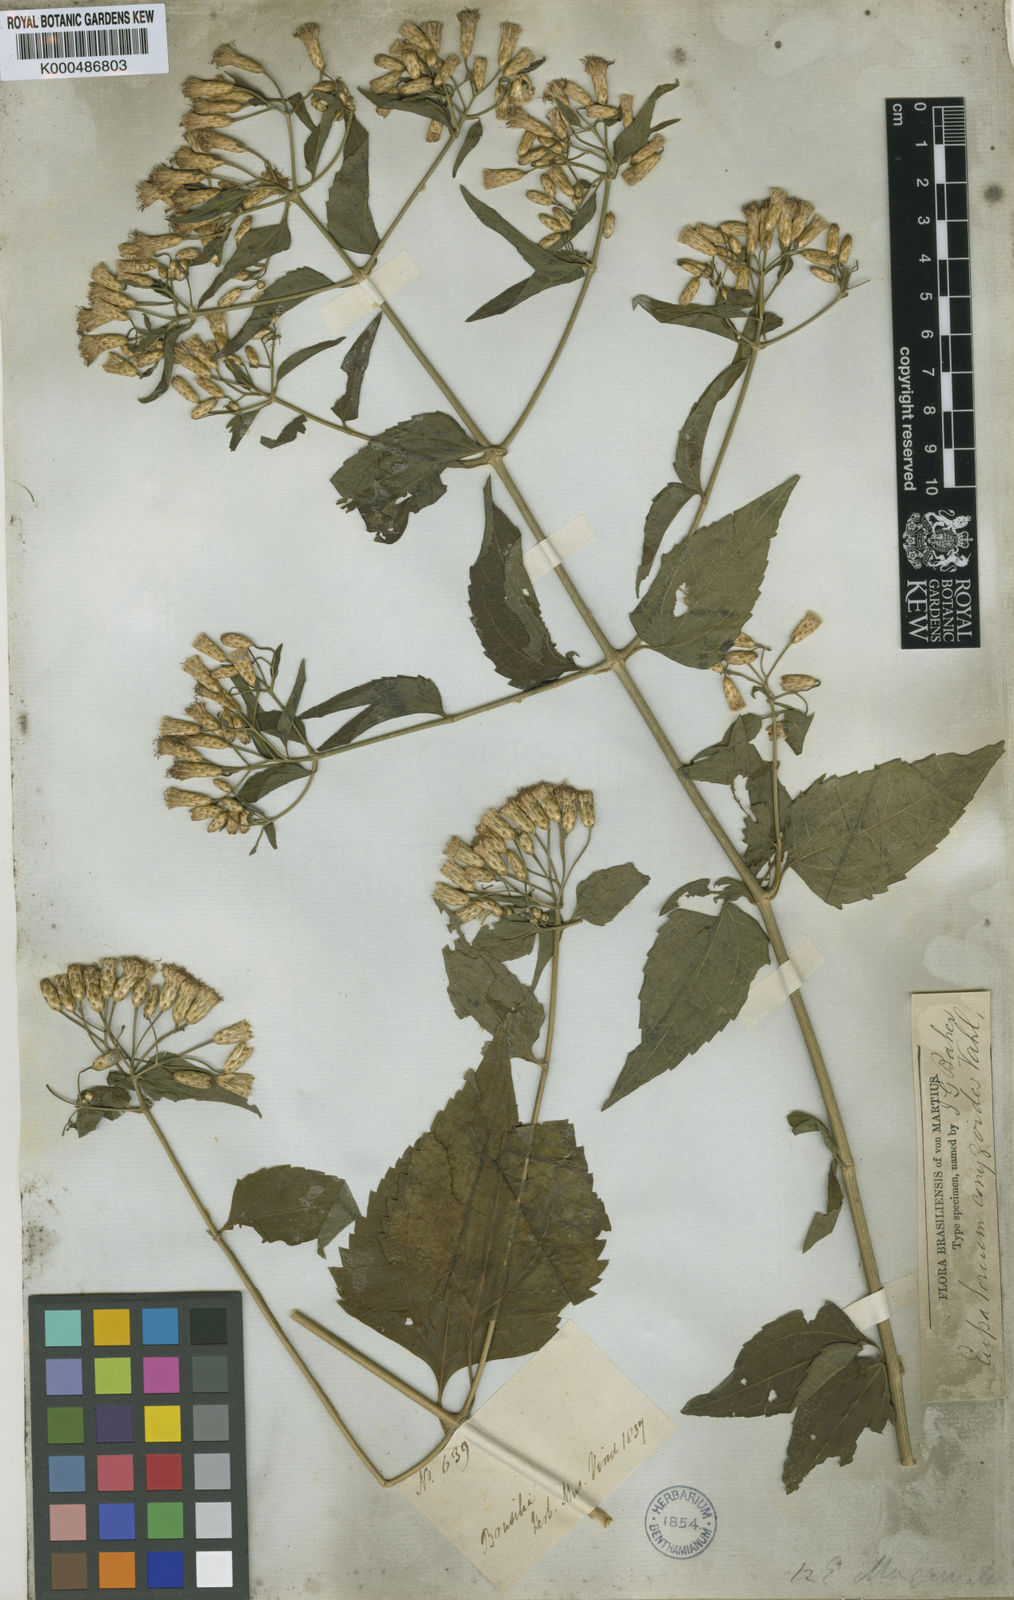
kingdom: Plantae
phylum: Tracheophyta
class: Magnoliopsida
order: Asterales
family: Asteraceae
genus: Chromolaena
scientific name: Chromolaena maximiliani
